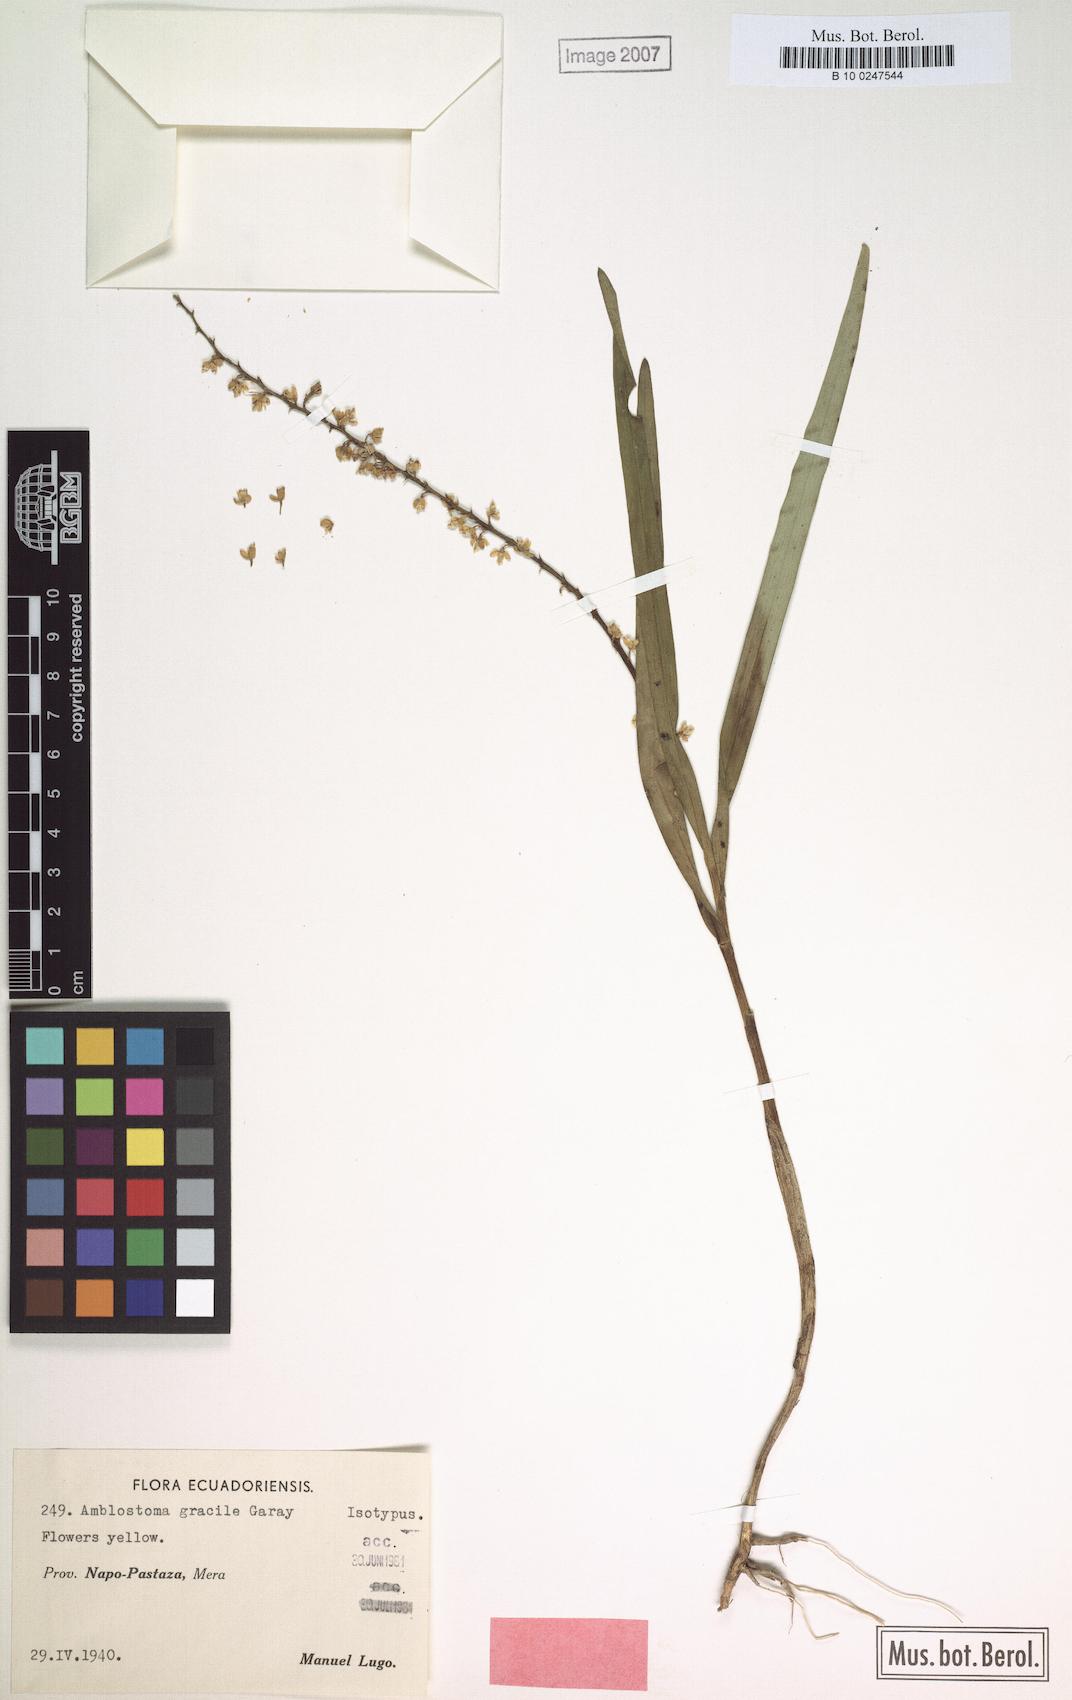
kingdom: Plantae
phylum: Tracheophyta
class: Liliopsida
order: Asparagales
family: Orchidaceae
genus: Epidendrum
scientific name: Epidendrum macrum
